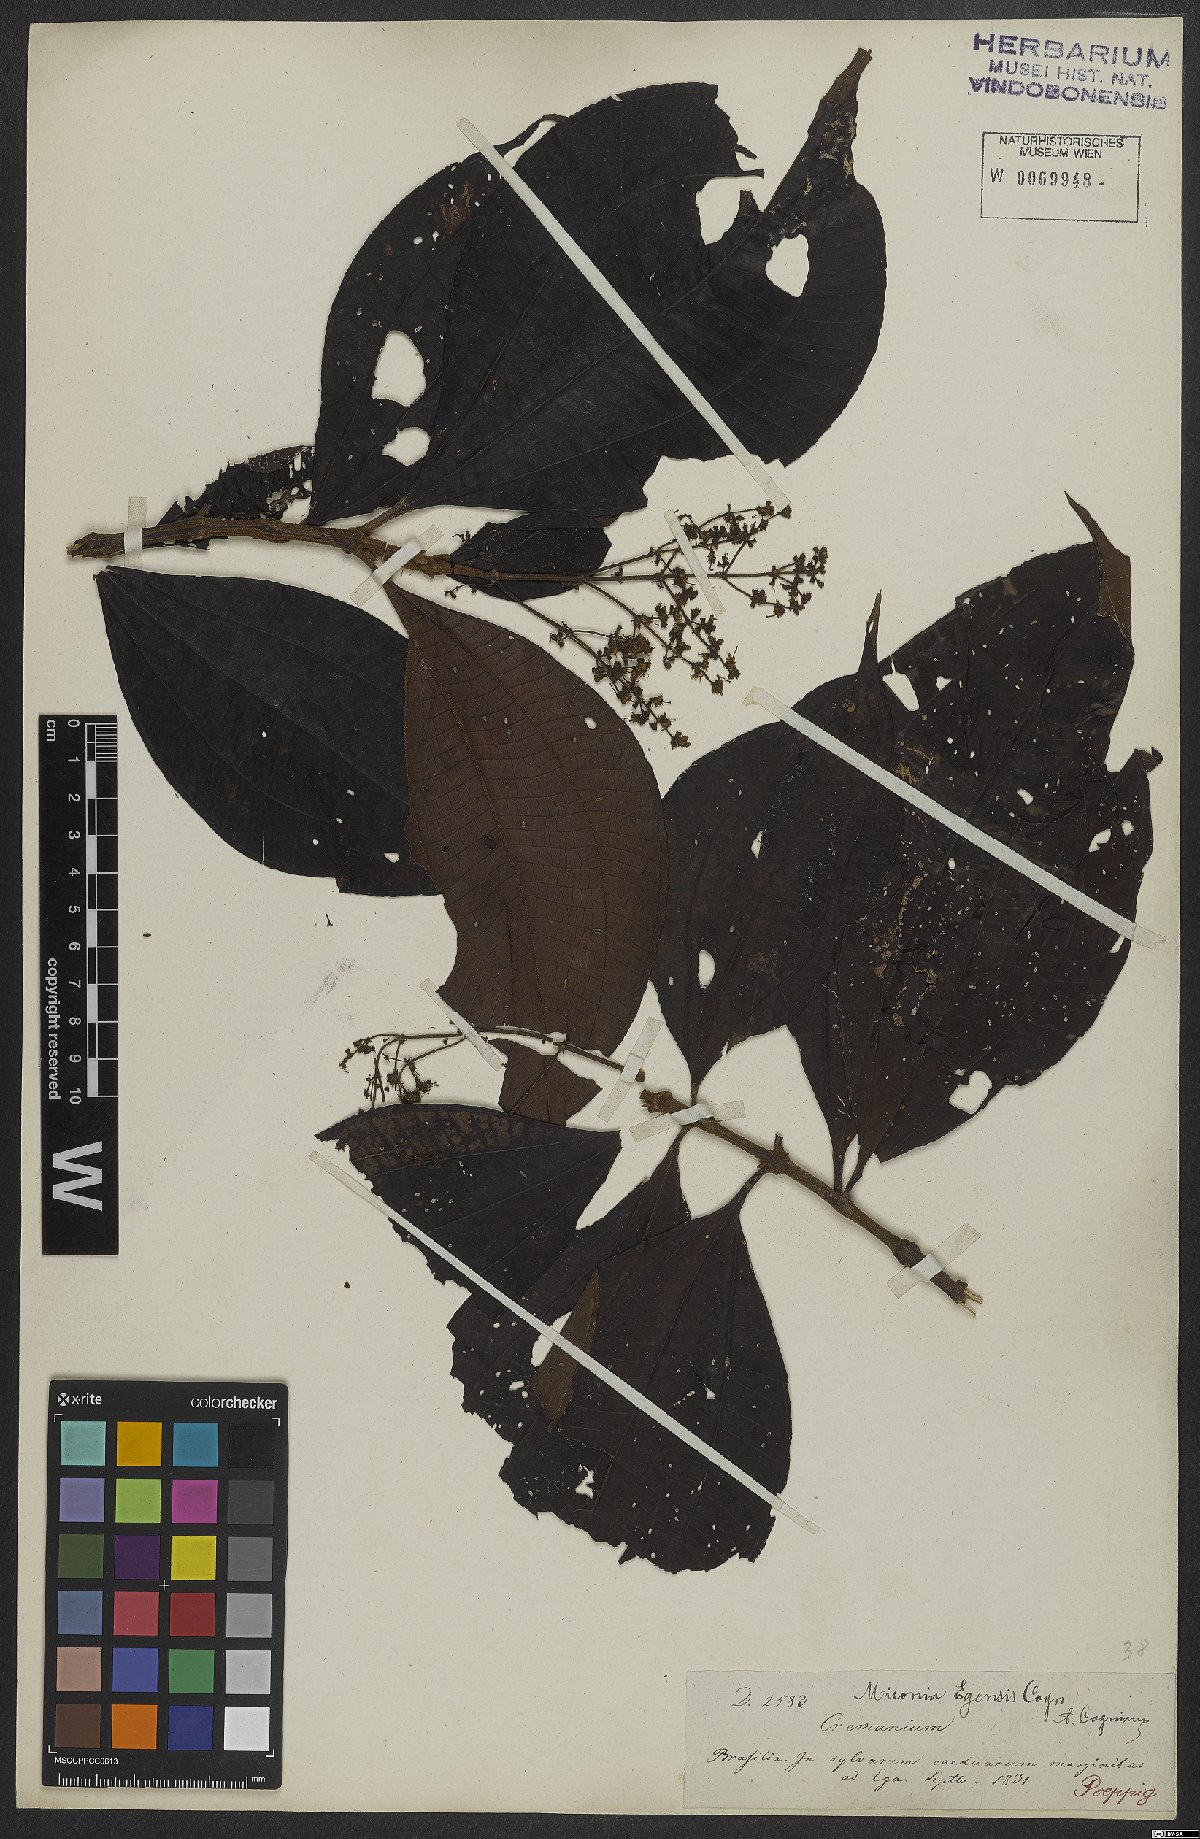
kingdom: Plantae
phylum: Tracheophyta
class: Magnoliopsida
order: Myrtales
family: Melastomataceae
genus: Miconia
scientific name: Miconia egensis
